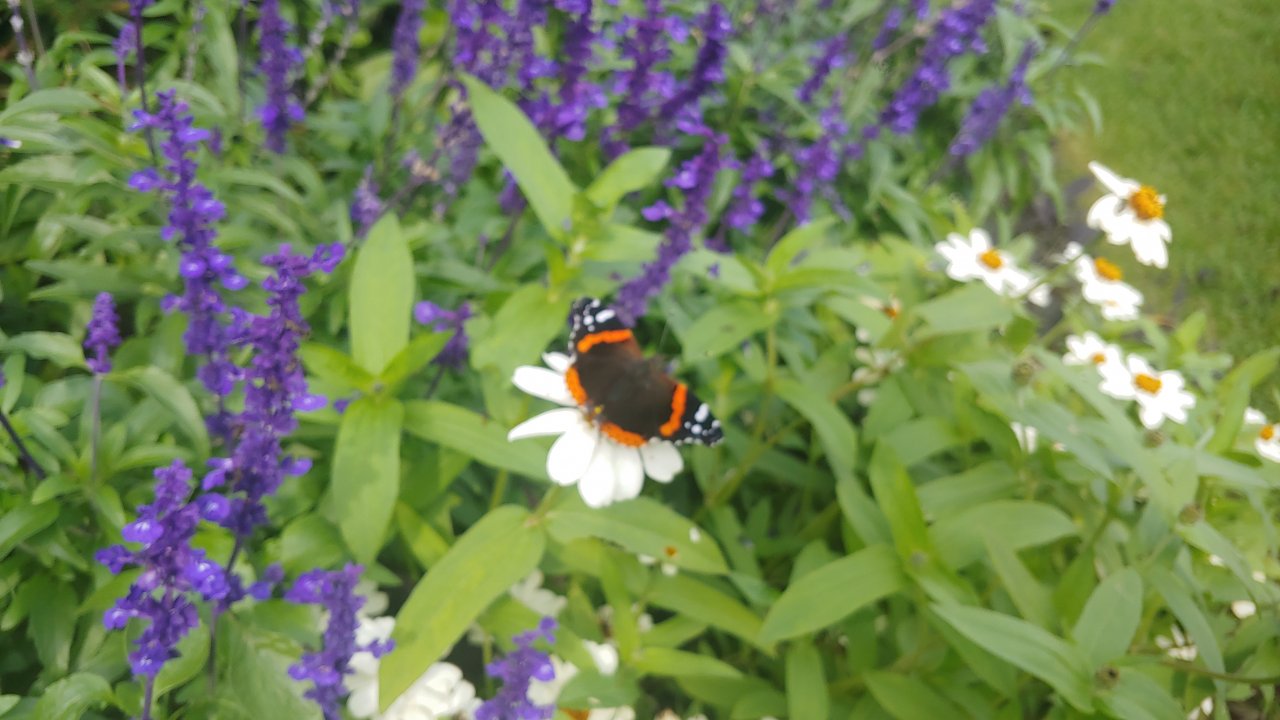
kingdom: Animalia
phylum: Arthropoda
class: Insecta
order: Lepidoptera
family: Nymphalidae
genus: Vanessa
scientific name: Vanessa atalanta
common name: Red Admiral
